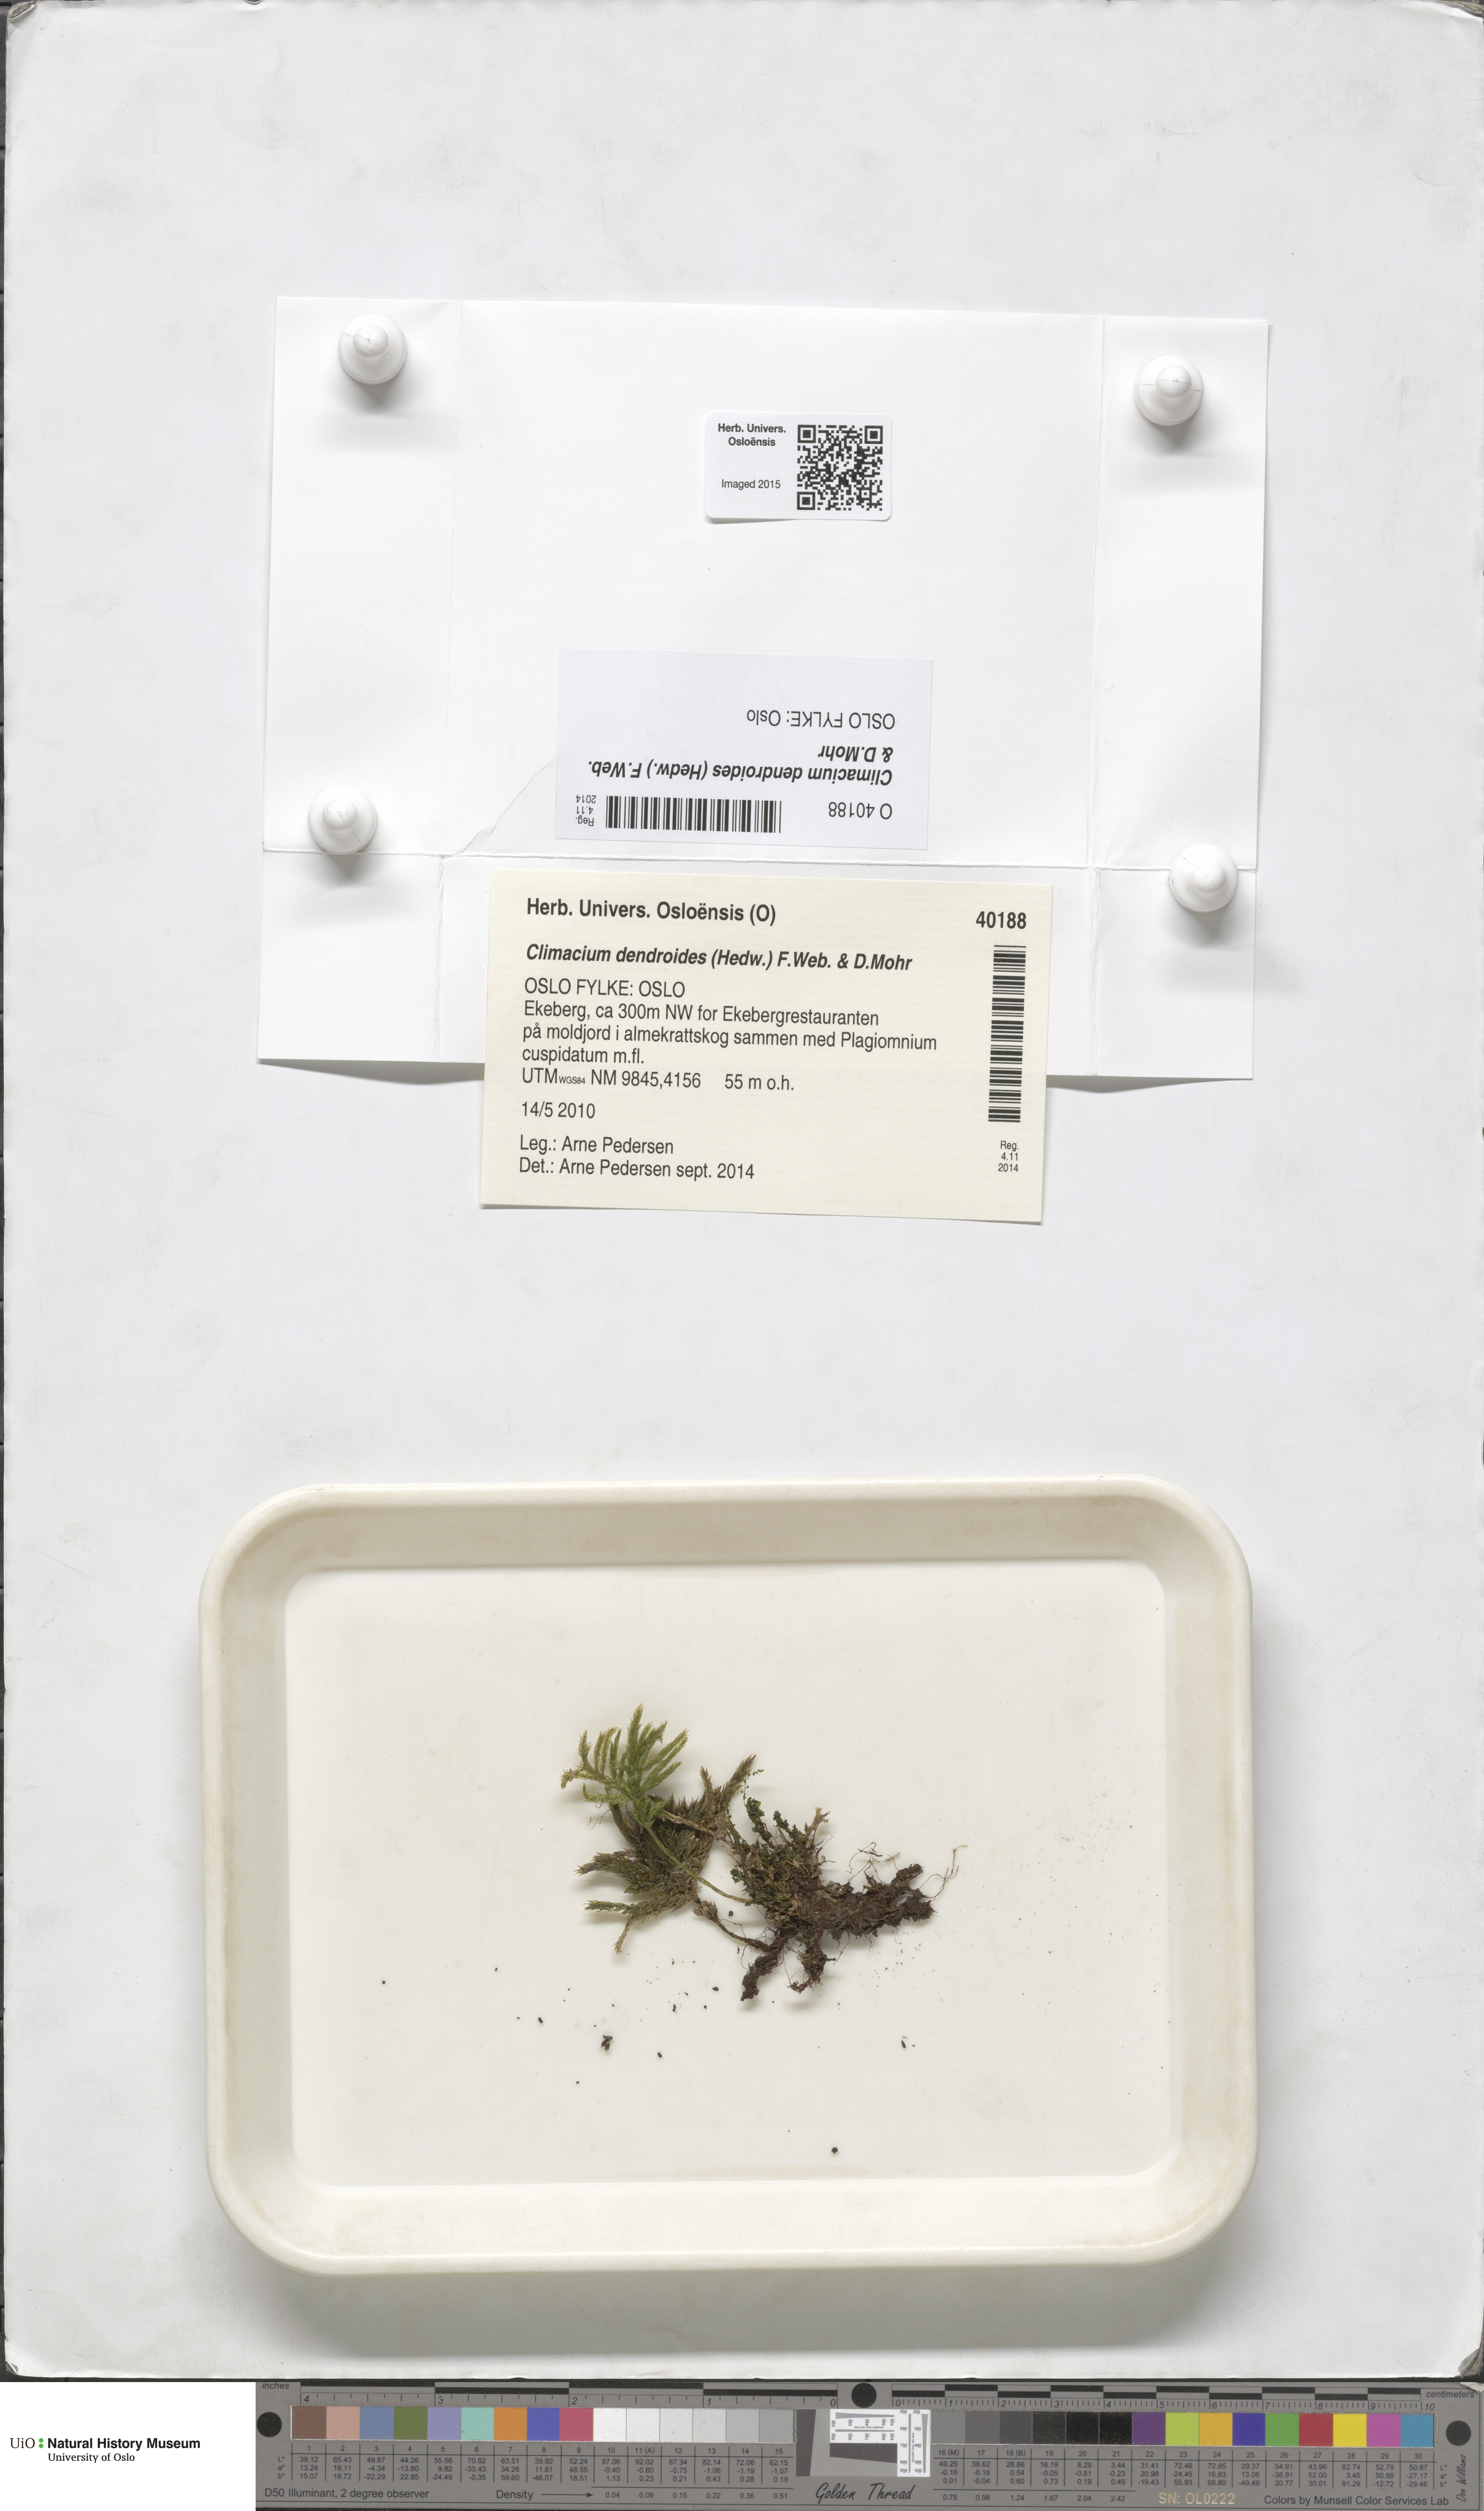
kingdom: Plantae
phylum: Bryophyta
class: Bryopsida
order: Hypnales
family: Climaciaceae
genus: Climacium
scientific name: Climacium dendroides
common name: Northern tree moss
